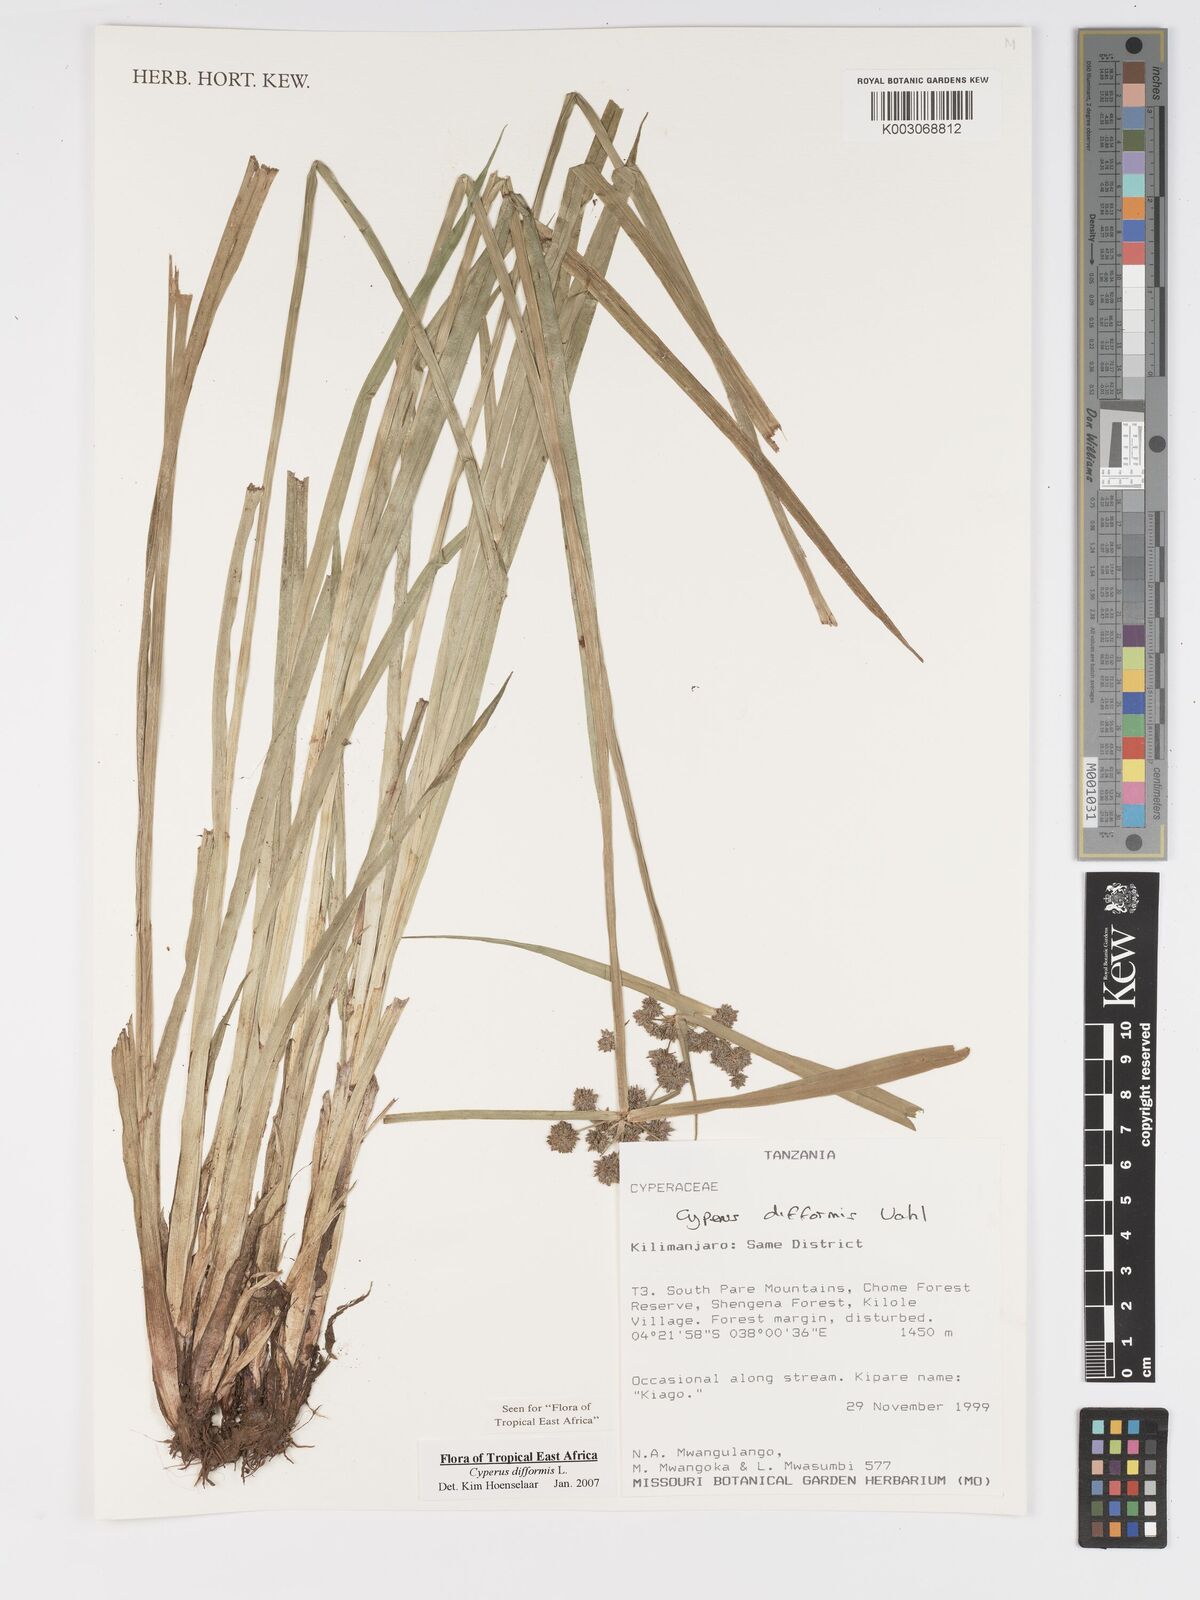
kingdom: Plantae
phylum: Tracheophyta
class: Liliopsida
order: Poales
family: Cyperaceae
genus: Cyperus
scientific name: Cyperus difformis
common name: Variable flatsedge
